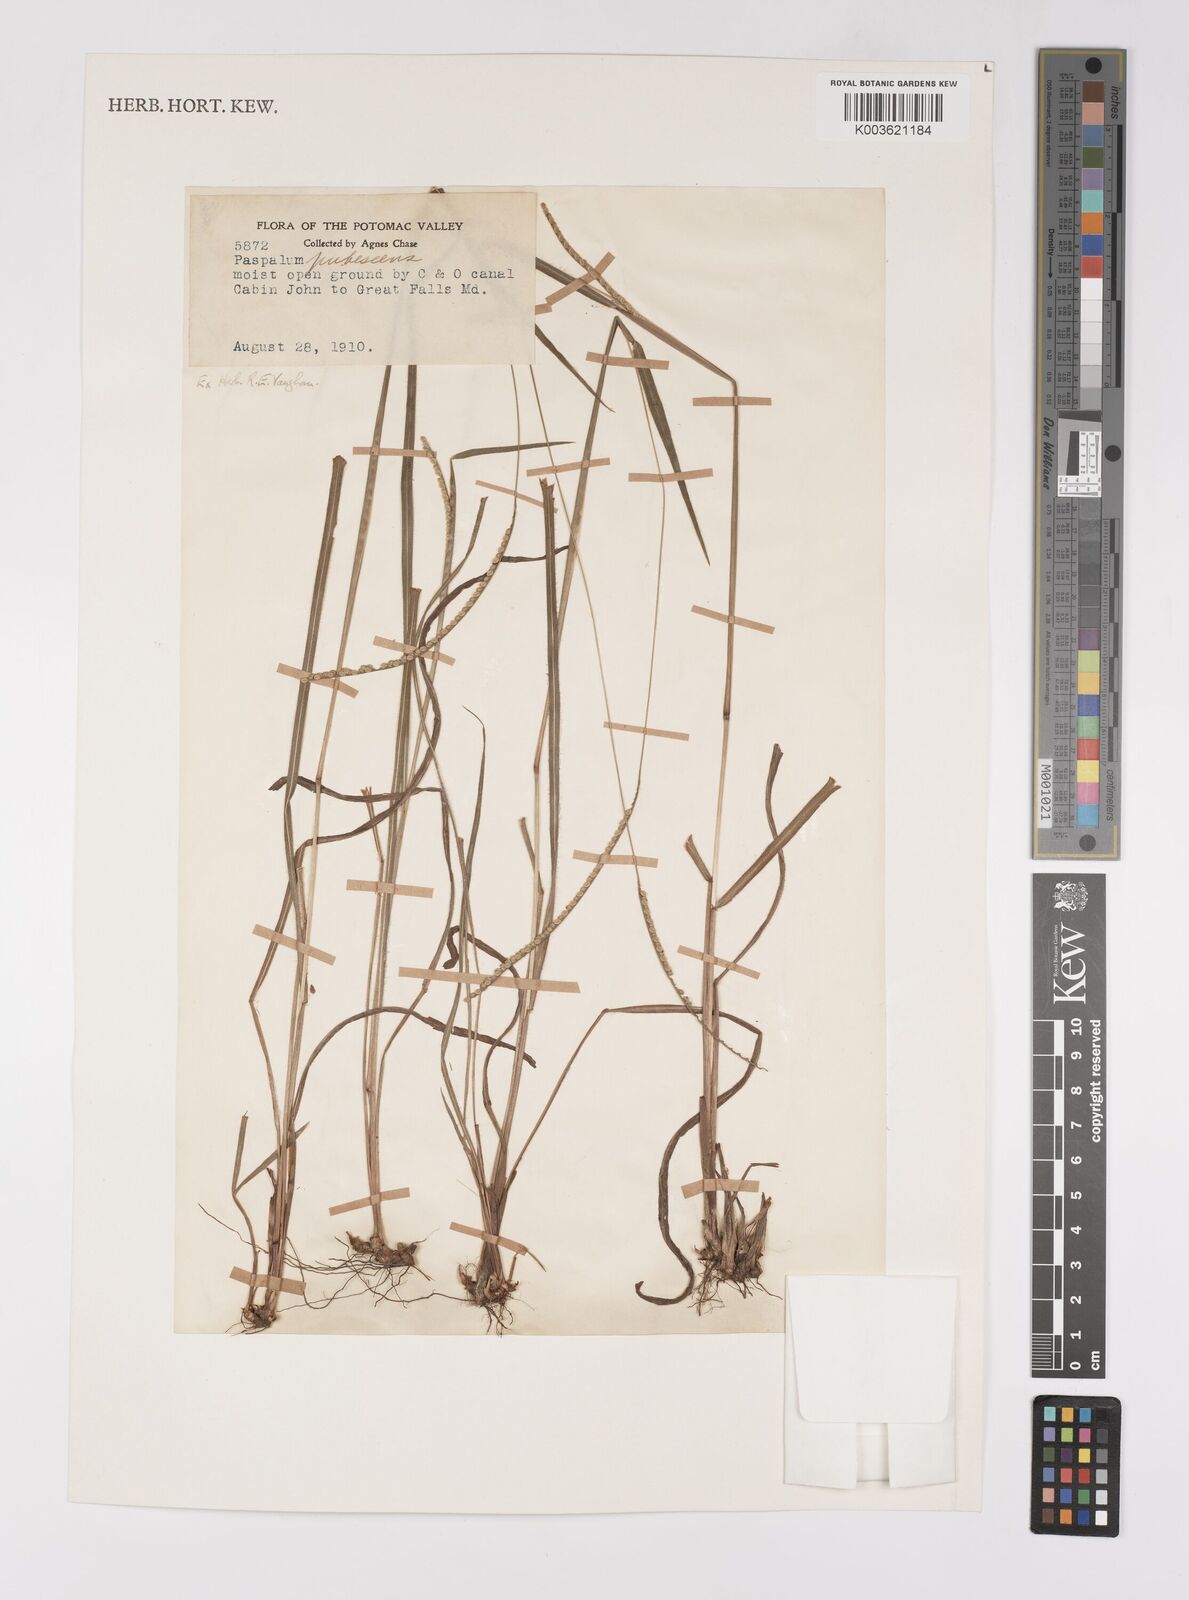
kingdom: Plantae
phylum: Tracheophyta
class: Liliopsida
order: Poales
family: Poaceae
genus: Paspalum
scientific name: Paspalum setaceum
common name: Slender paspalum
